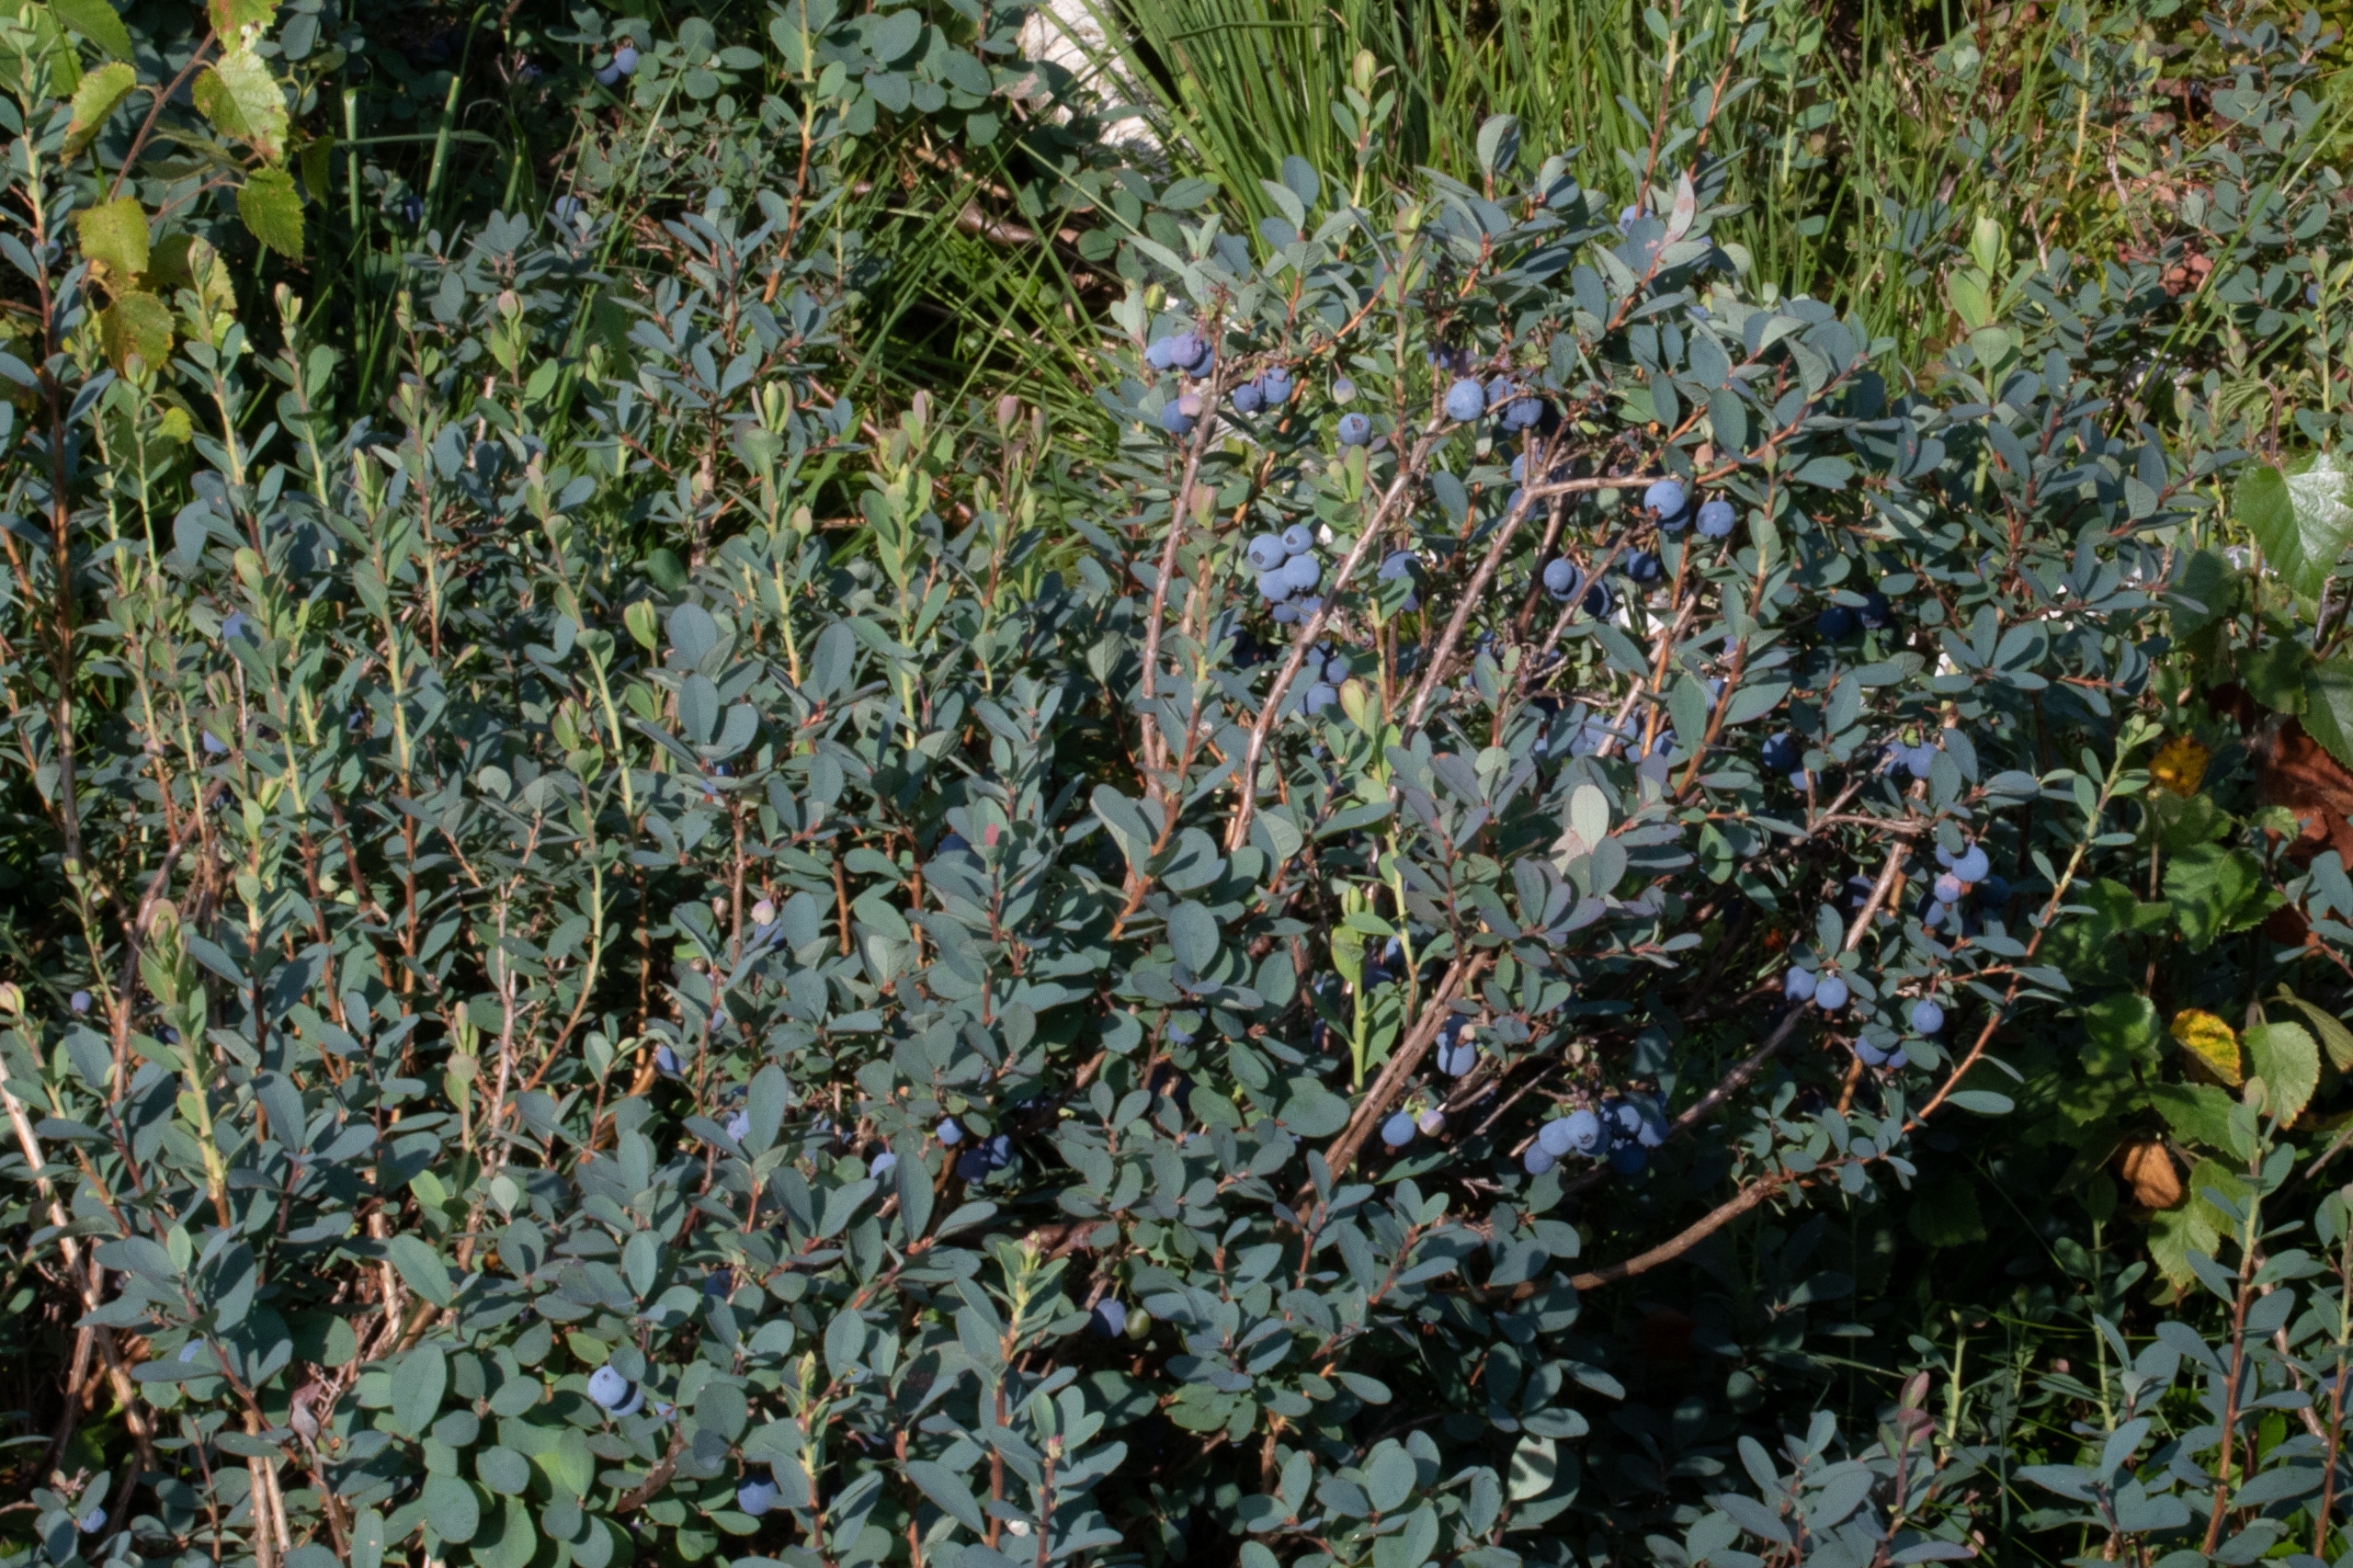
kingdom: Plantae
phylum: Tracheophyta
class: Magnoliopsida
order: Ericales
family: Ericaceae
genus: Vaccinium
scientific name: Vaccinium uliginosum
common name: Mose-bølle
